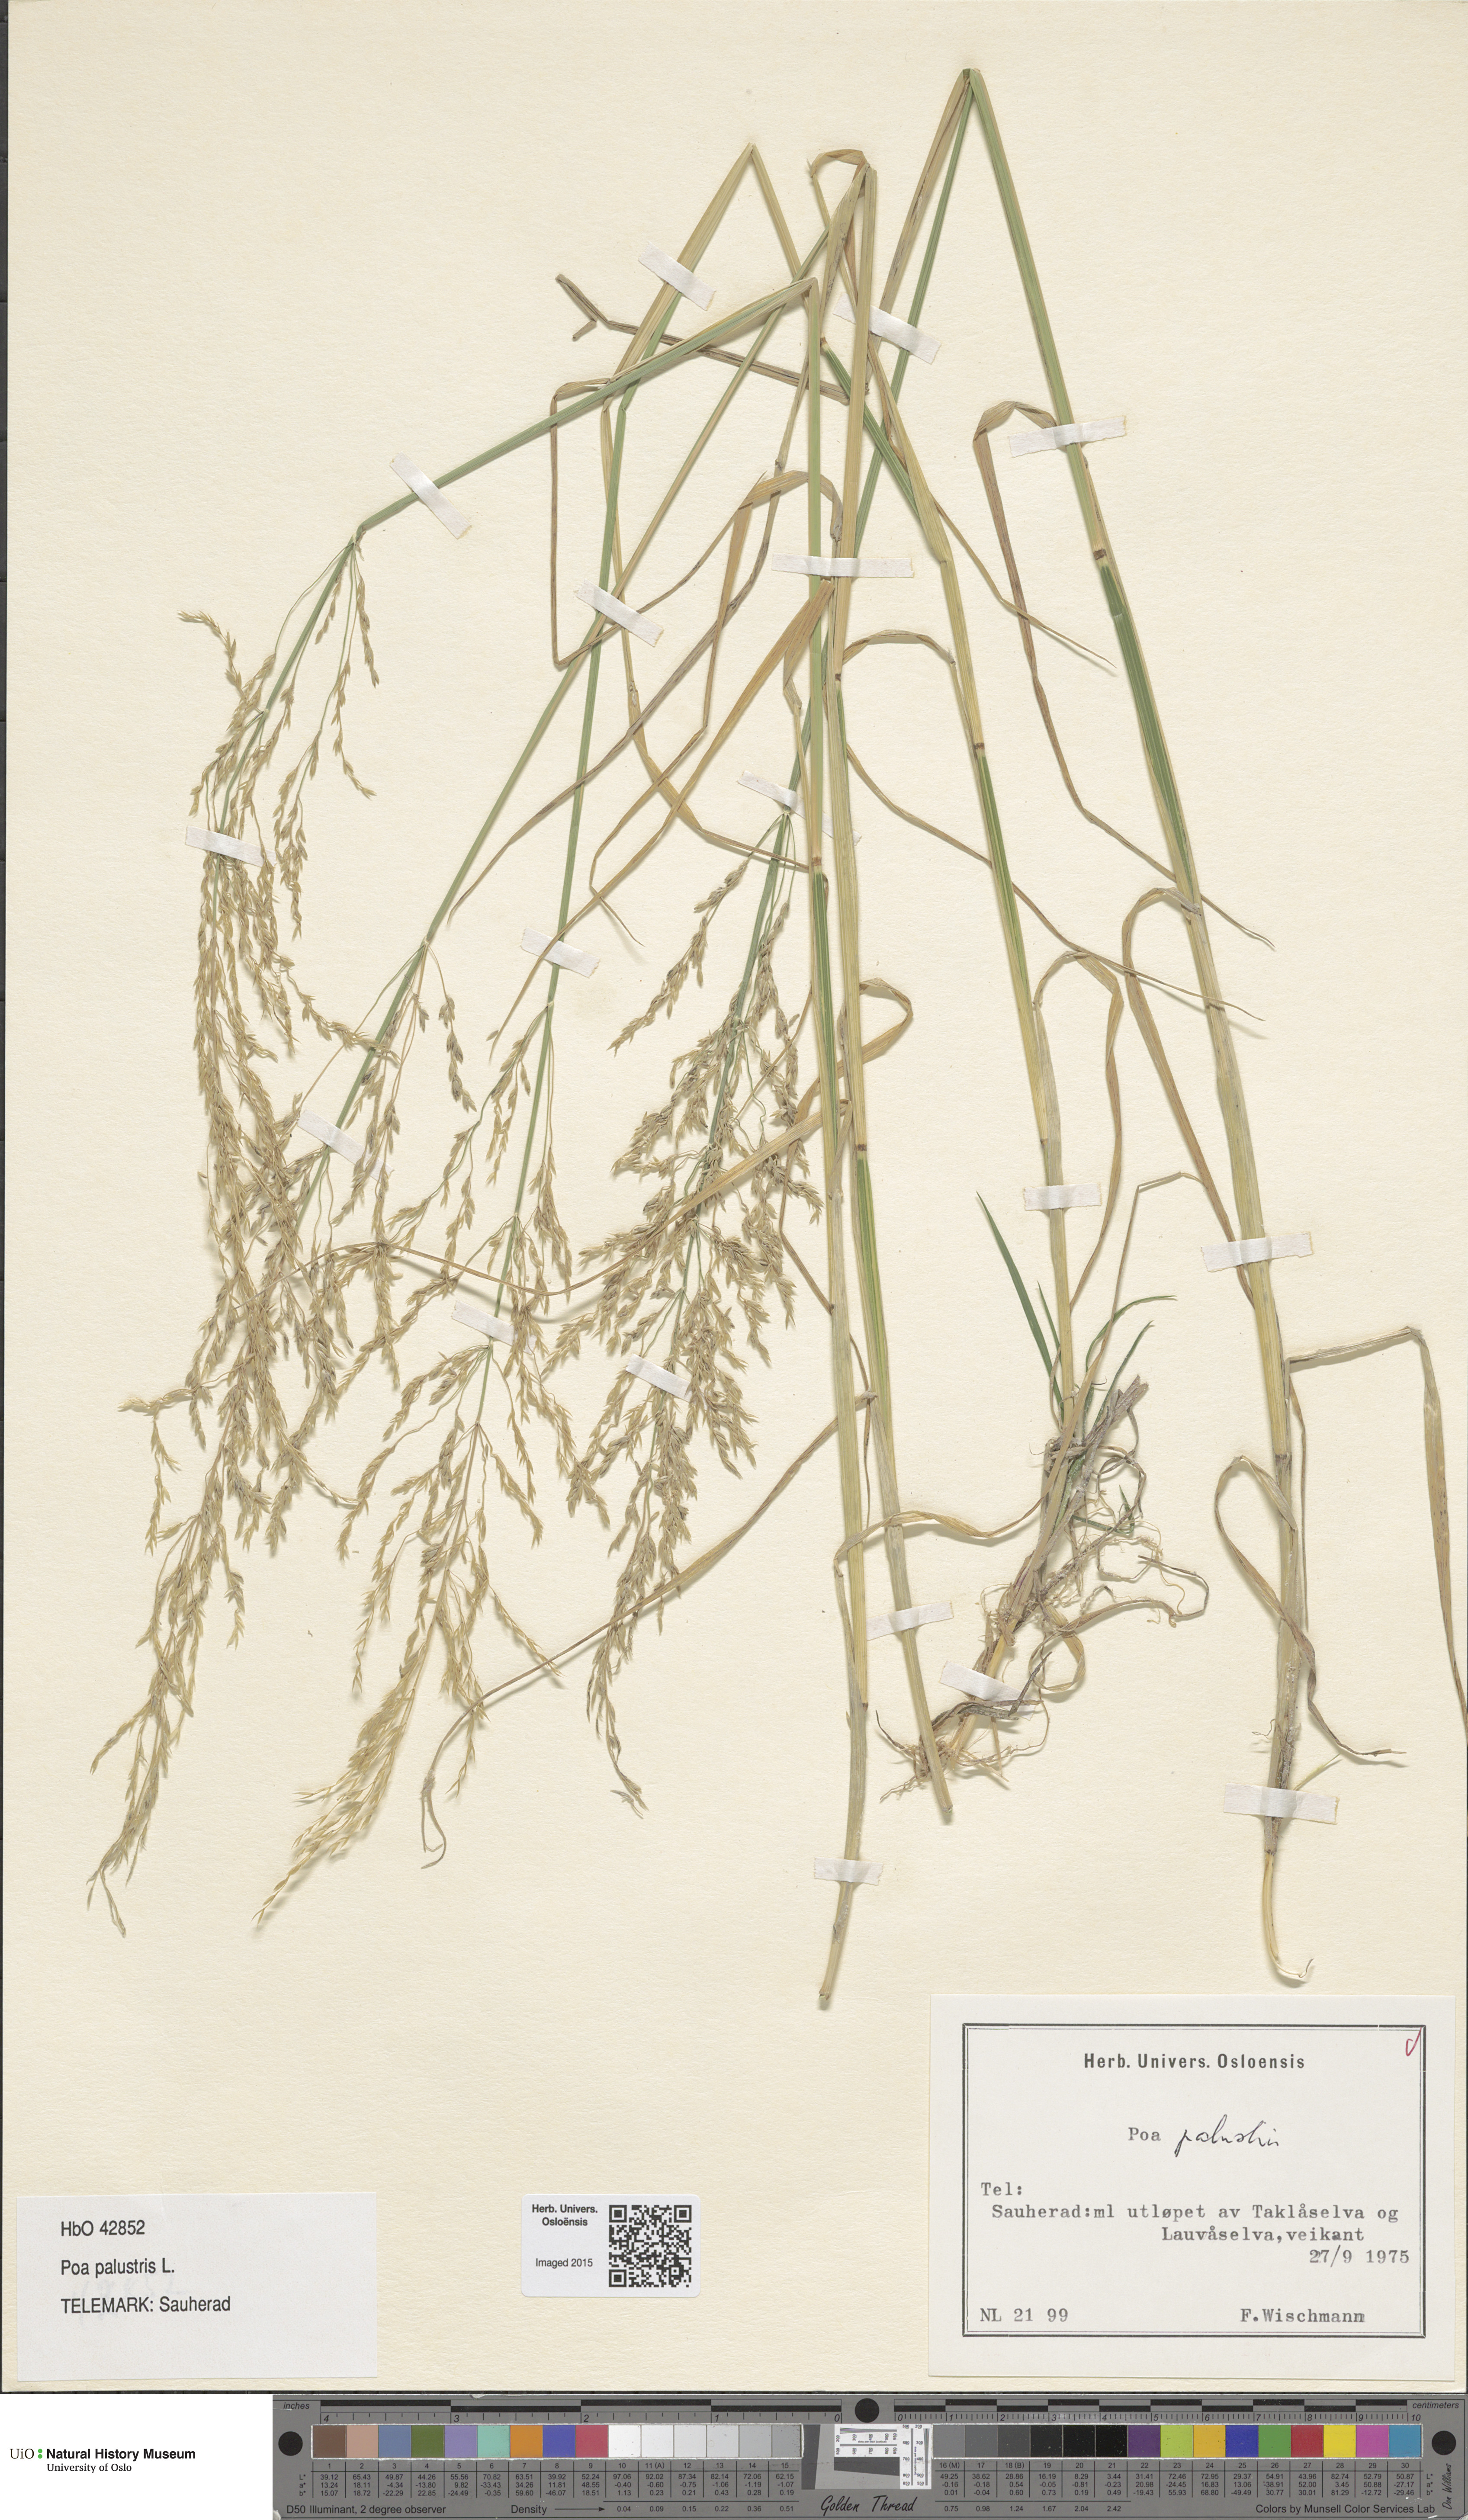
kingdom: Plantae
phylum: Tracheophyta
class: Liliopsida
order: Poales
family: Poaceae
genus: Poa
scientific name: Poa palustris
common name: Swamp meadow-grass
